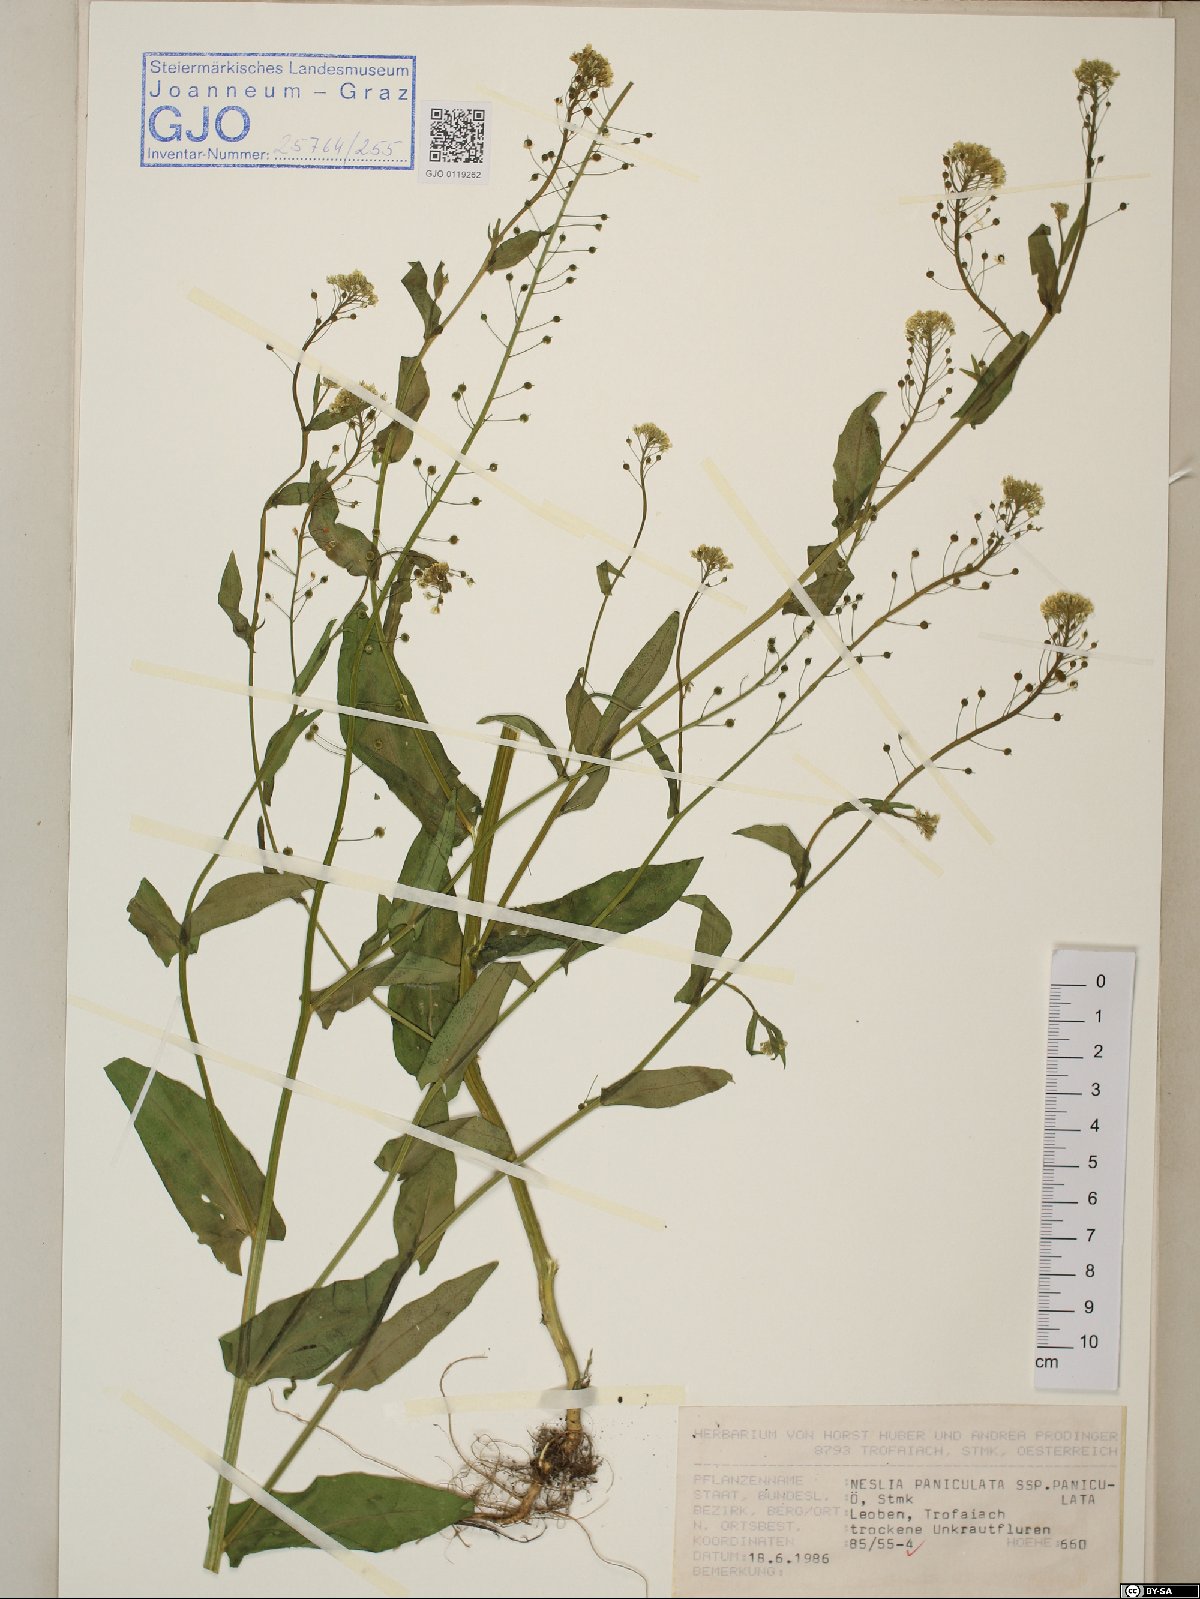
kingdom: Plantae
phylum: Tracheophyta
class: Magnoliopsida
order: Brassicales
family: Brassicaceae
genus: Neslia
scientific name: Neslia paniculata
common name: Ball mustard
